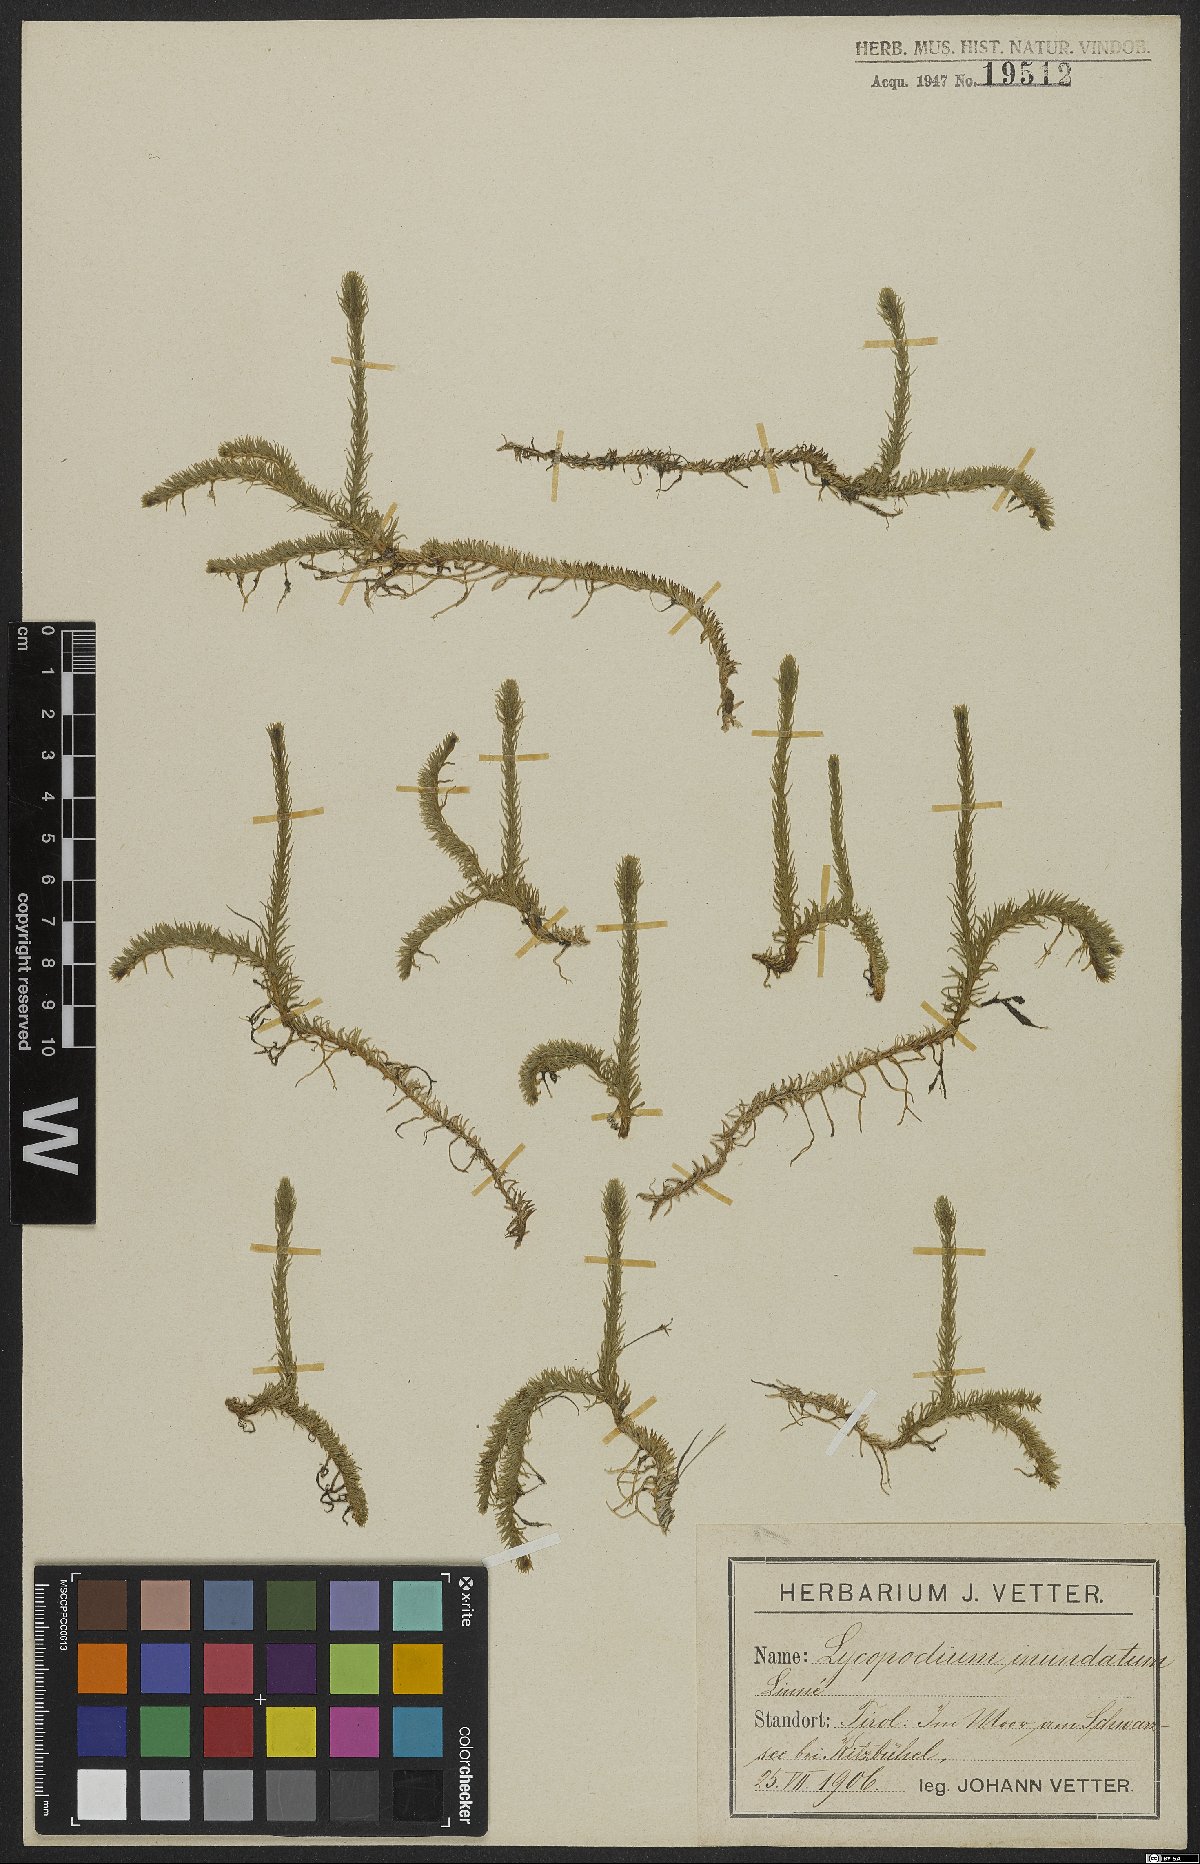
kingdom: Plantae
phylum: Tracheophyta
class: Lycopodiopsida
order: Lycopodiales
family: Lycopodiaceae
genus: Lycopodiella
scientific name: Lycopodiella inundata
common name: Marsh clubmoss
